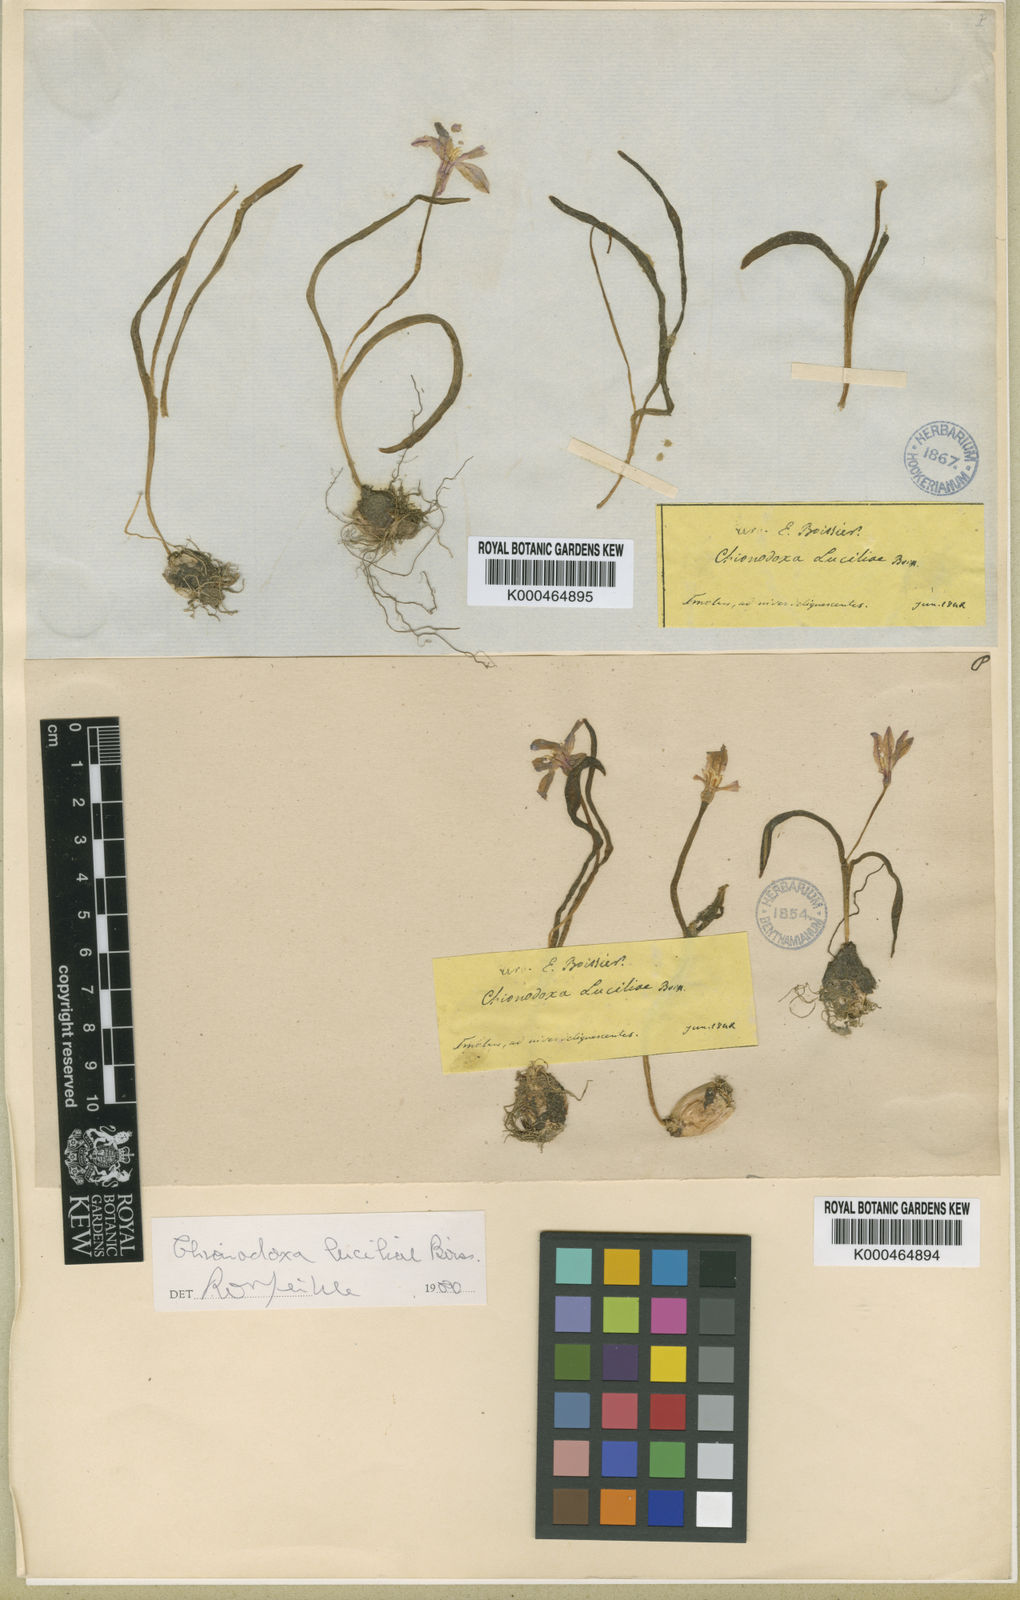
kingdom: Plantae
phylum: Tracheophyta
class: Liliopsida
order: Asparagales
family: Asparagaceae
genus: Scilla
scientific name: Scilla luciliae
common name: Boissier's glory-of-the-snow
